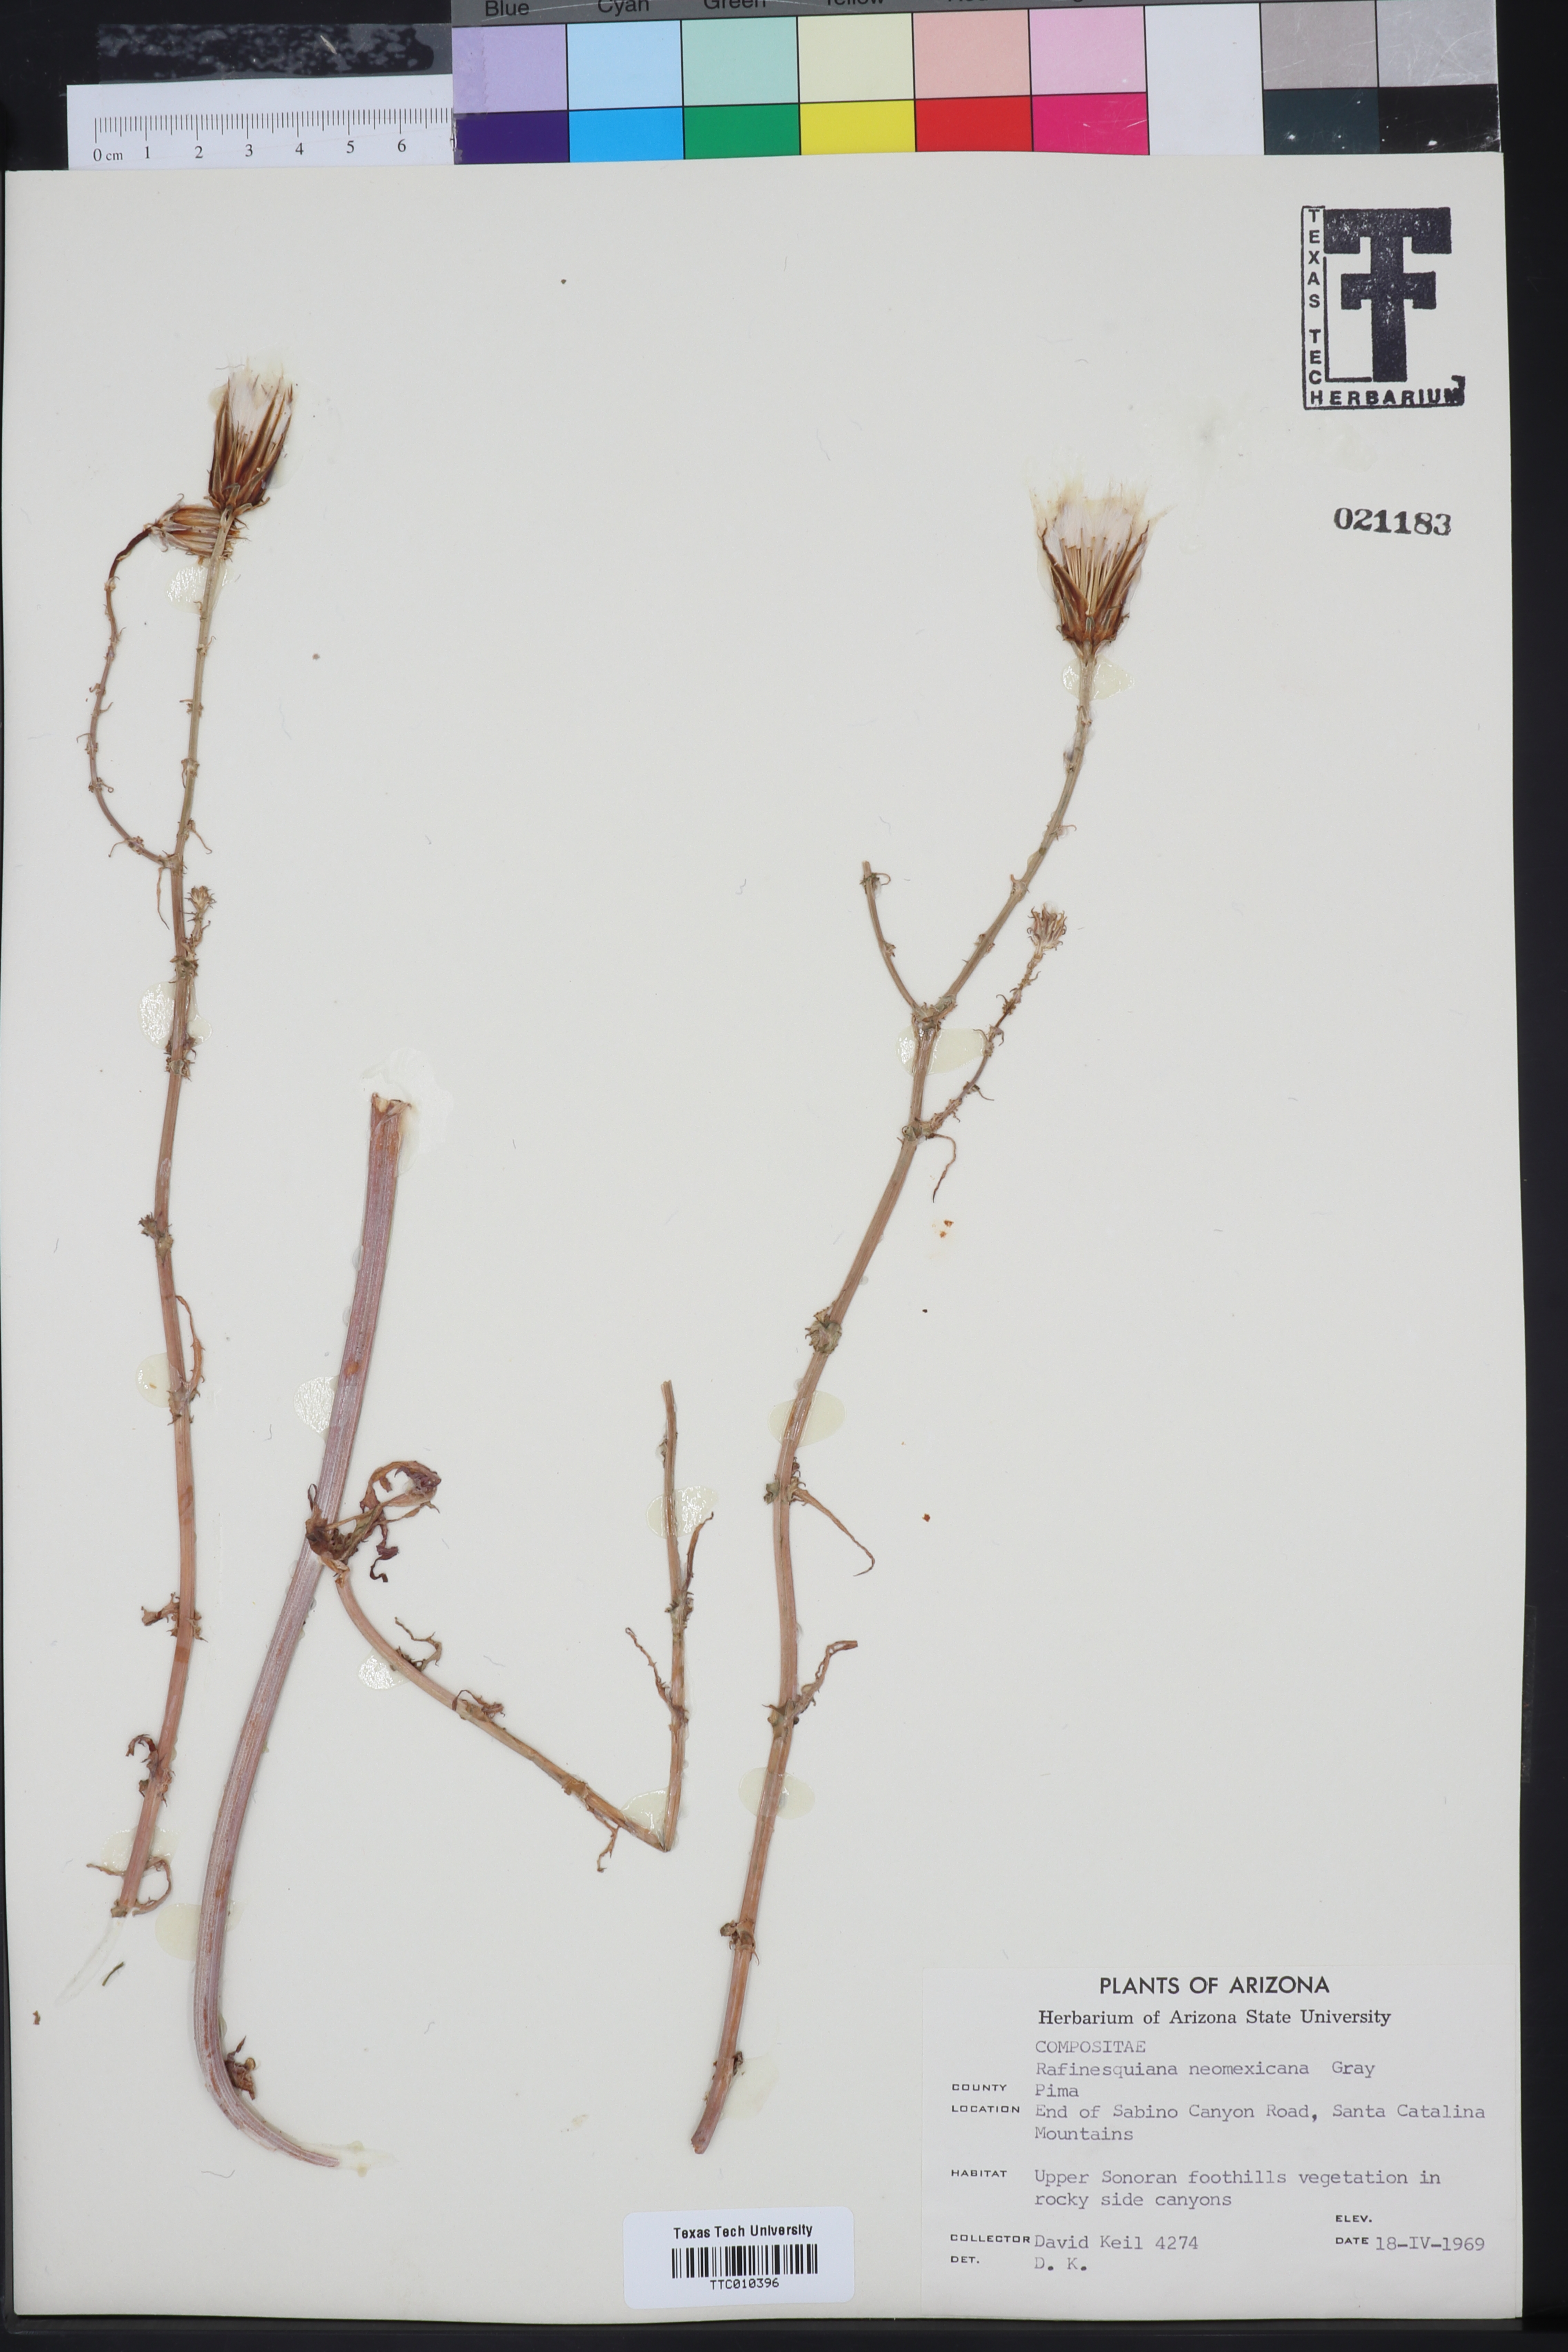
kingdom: Plantae
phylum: Tracheophyta
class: Magnoliopsida
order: Asterales
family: Asteraceae
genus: Rafinesquia
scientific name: Rafinesquia californica
